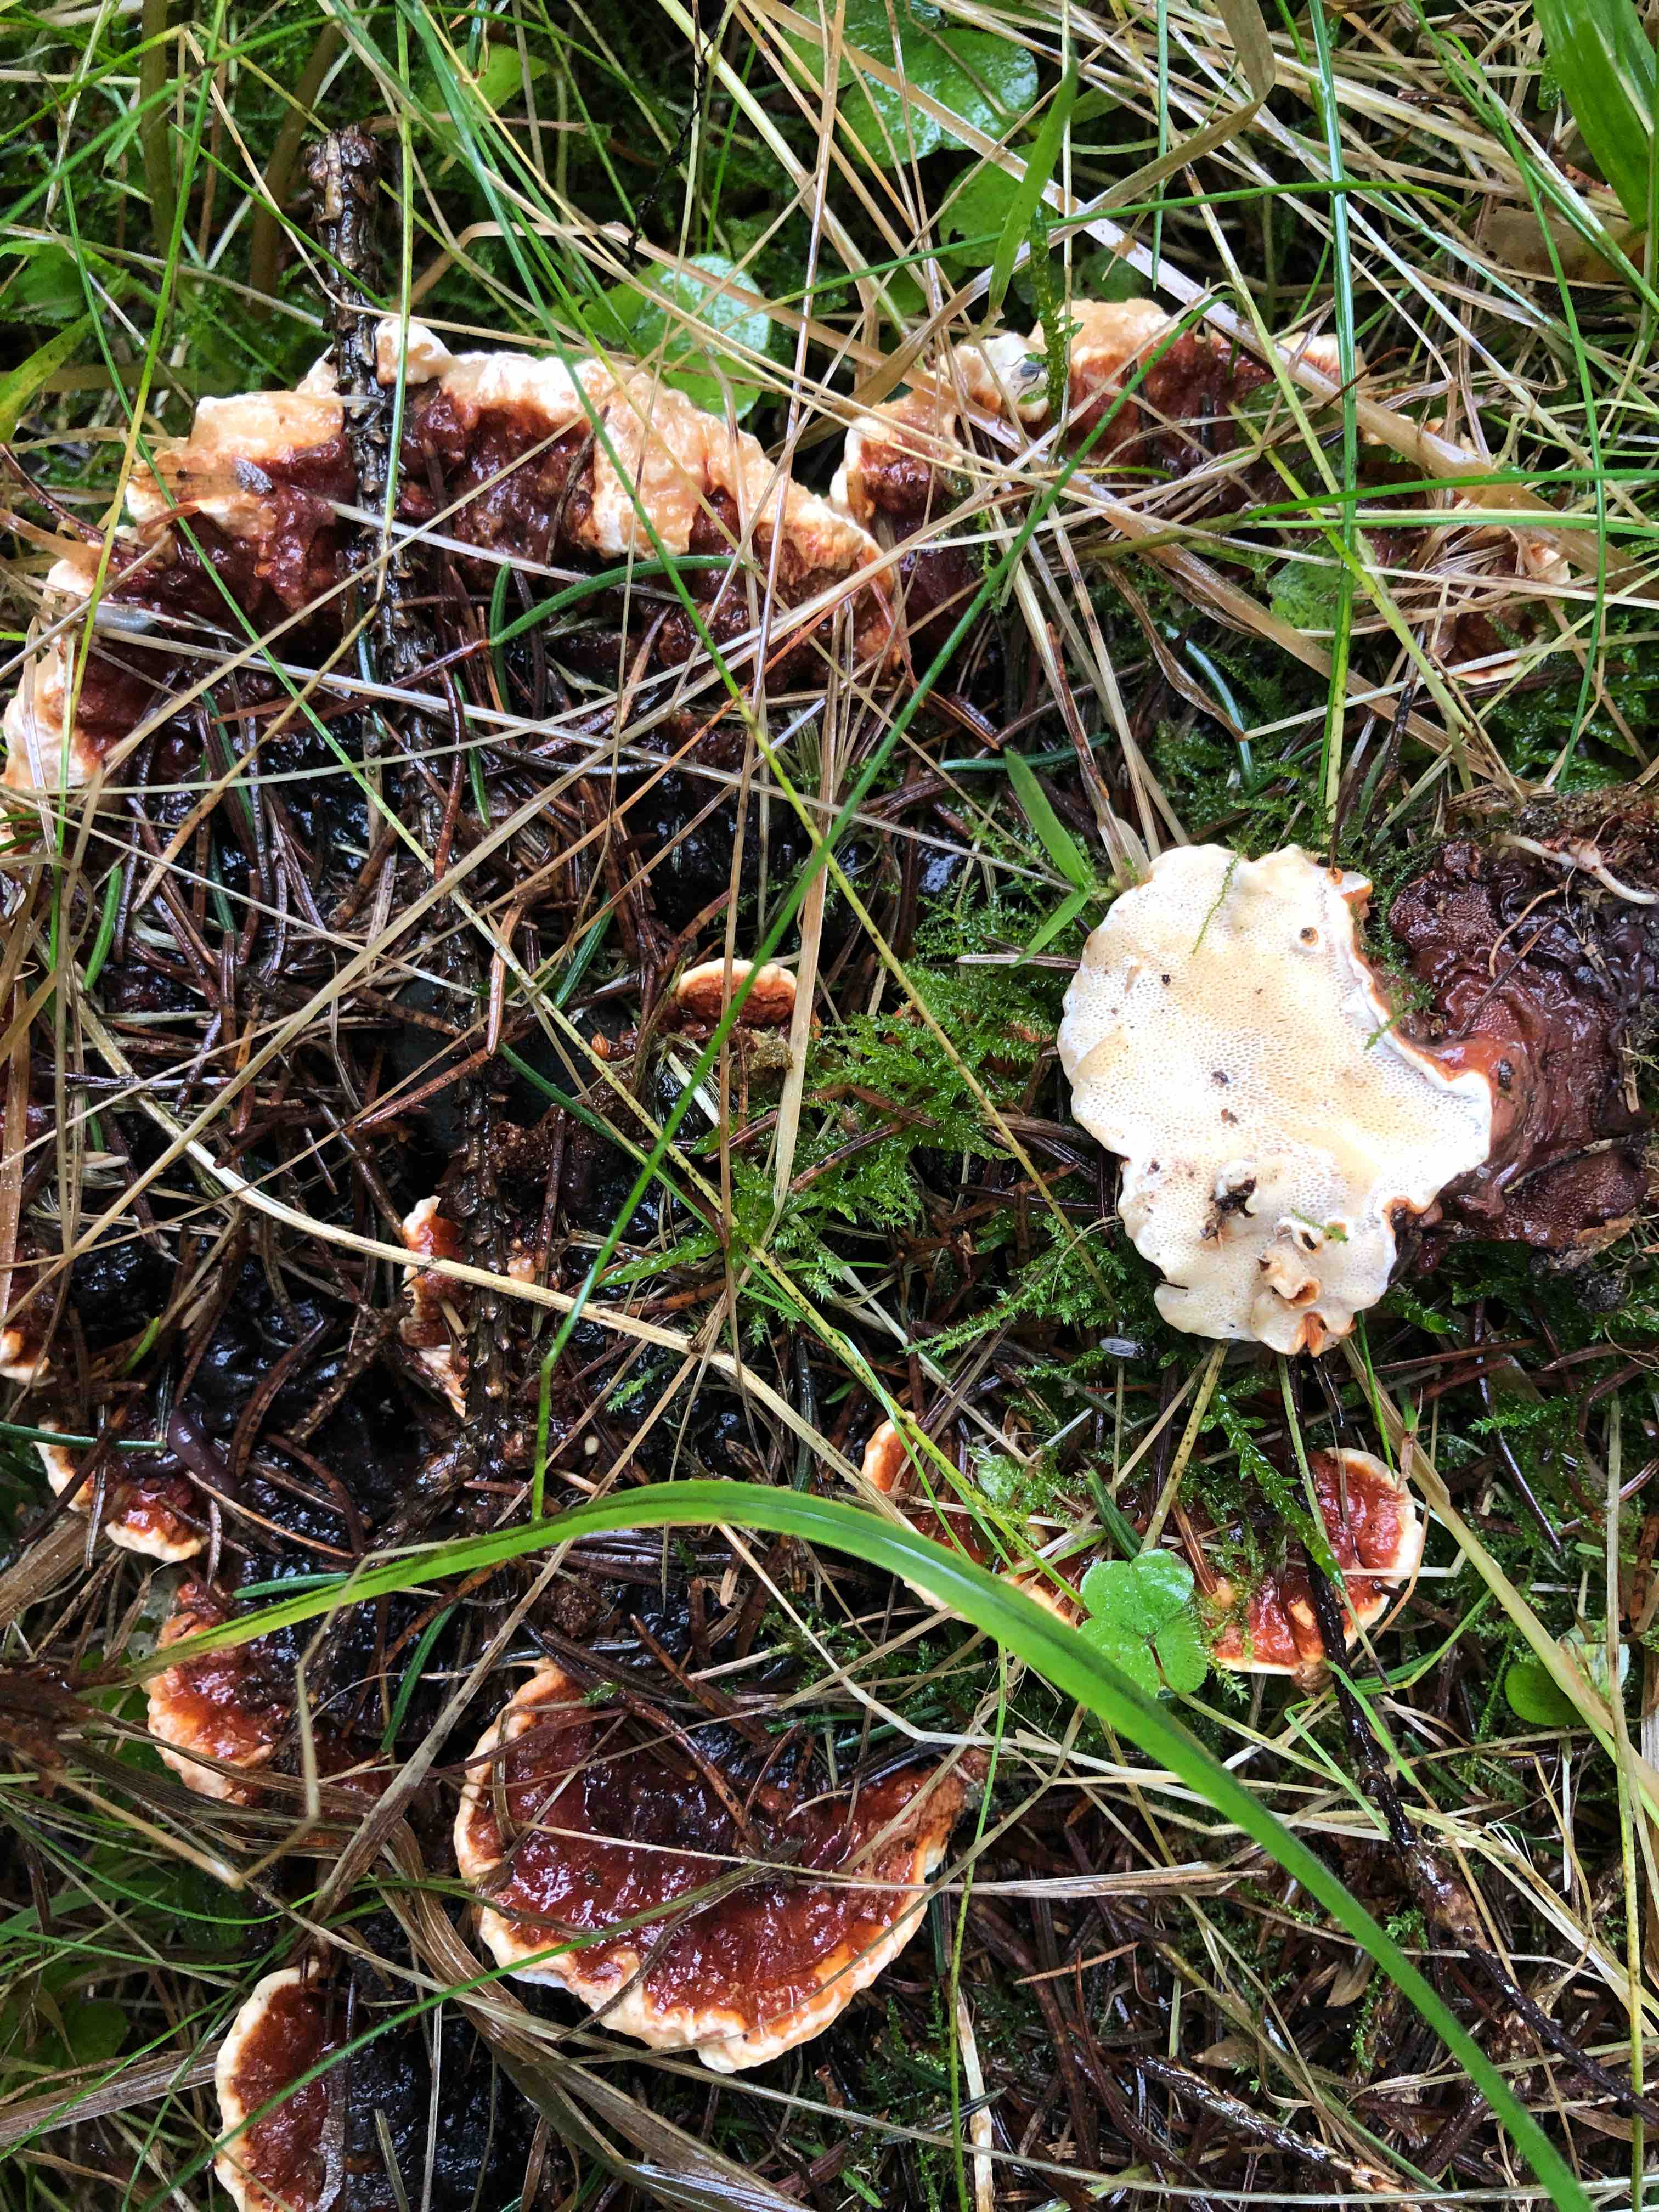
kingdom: Fungi
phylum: Basidiomycota
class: Agaricomycetes
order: Russulales
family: Bondarzewiaceae
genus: Heterobasidion
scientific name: Heterobasidion annosum
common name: almindelig rodfordærver
